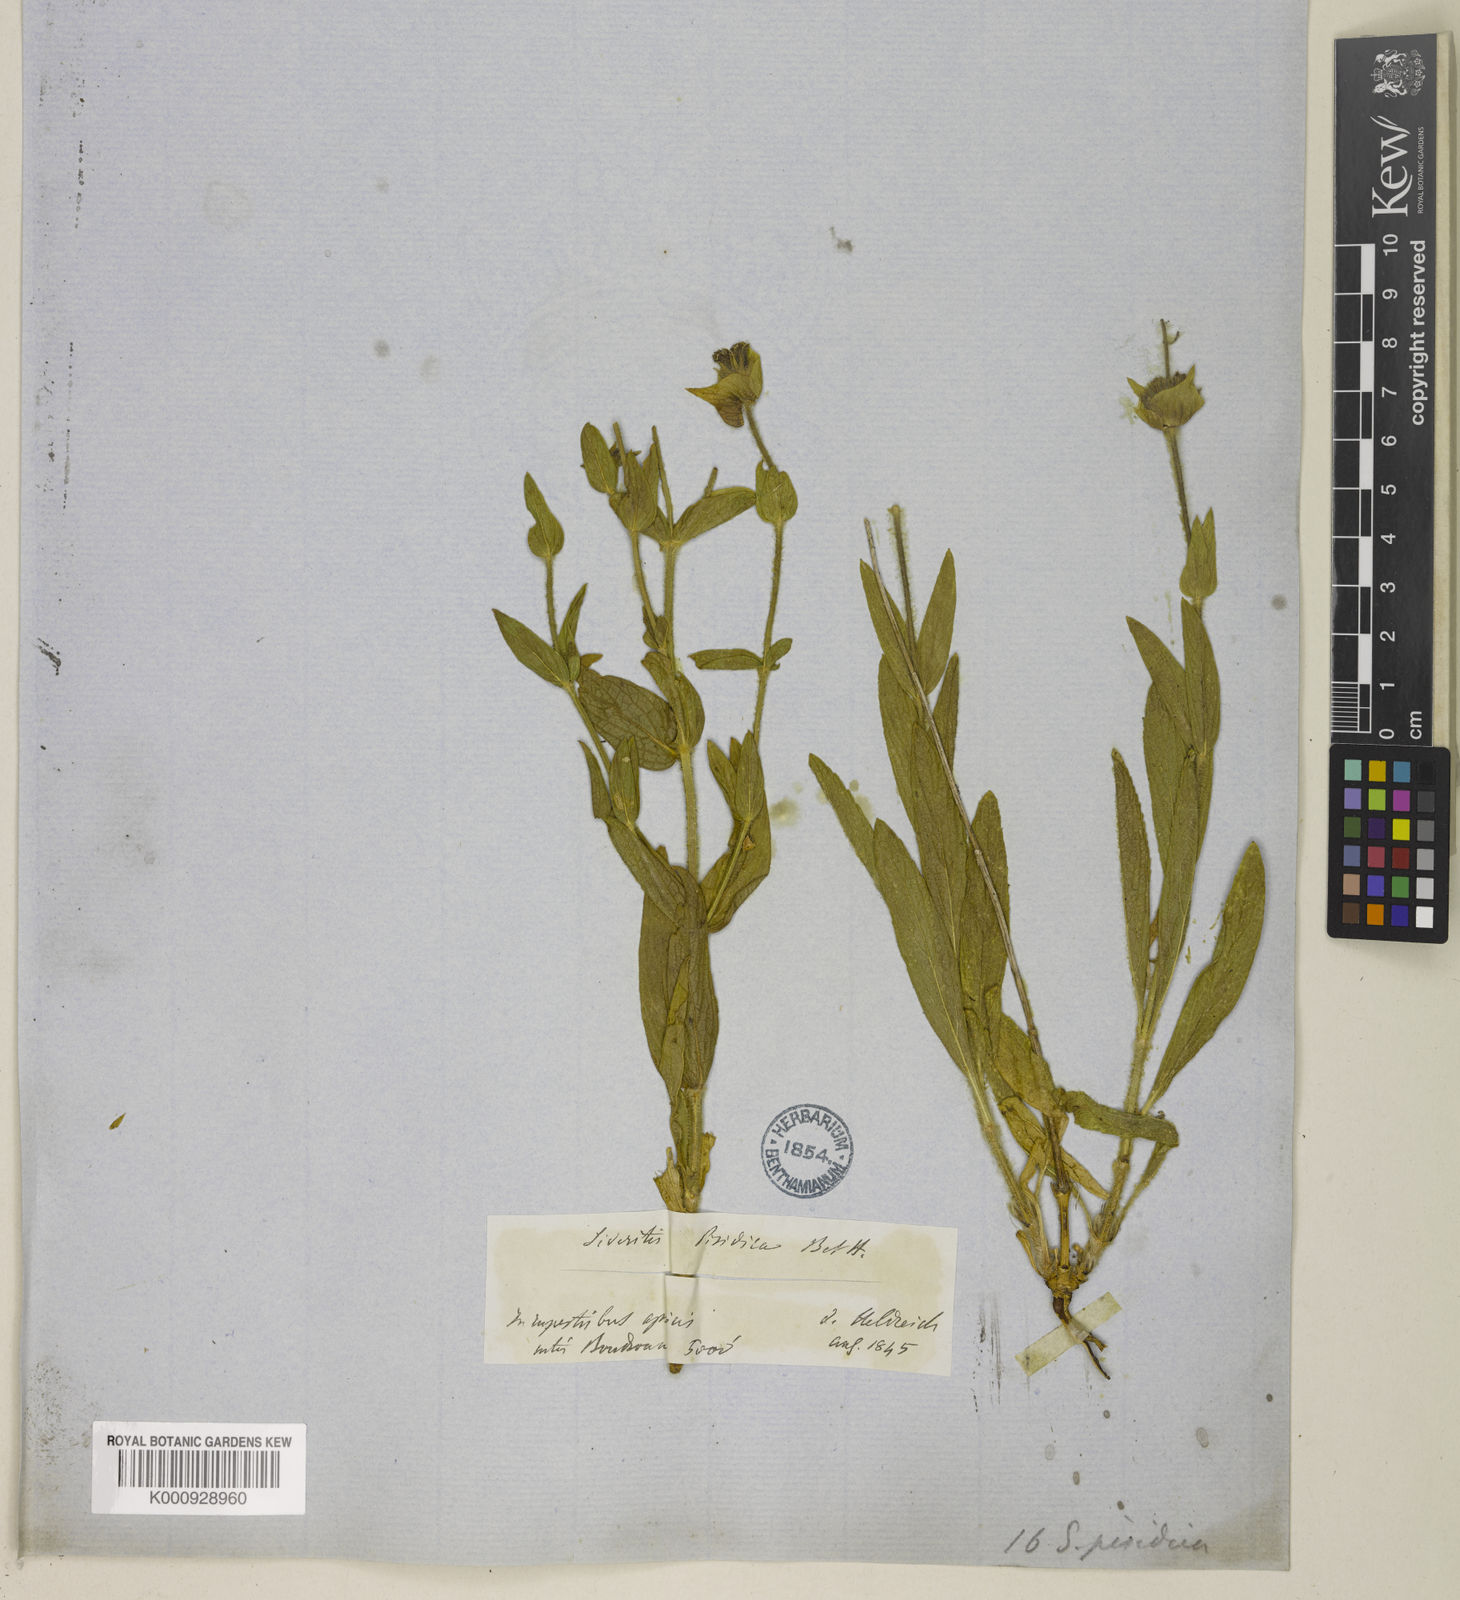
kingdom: Plantae
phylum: Tracheophyta
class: Magnoliopsida
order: Lamiales
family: Lamiaceae
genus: Sideritis
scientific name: Sideritis pisidica
